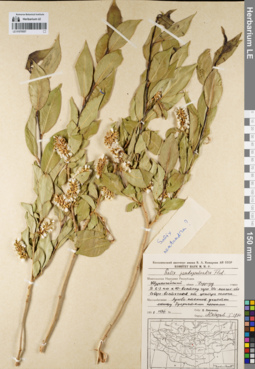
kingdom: Plantae
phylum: Tracheophyta
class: Magnoliopsida
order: Malpighiales
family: Salicaceae
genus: Salix
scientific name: Salix pseudopentandra
